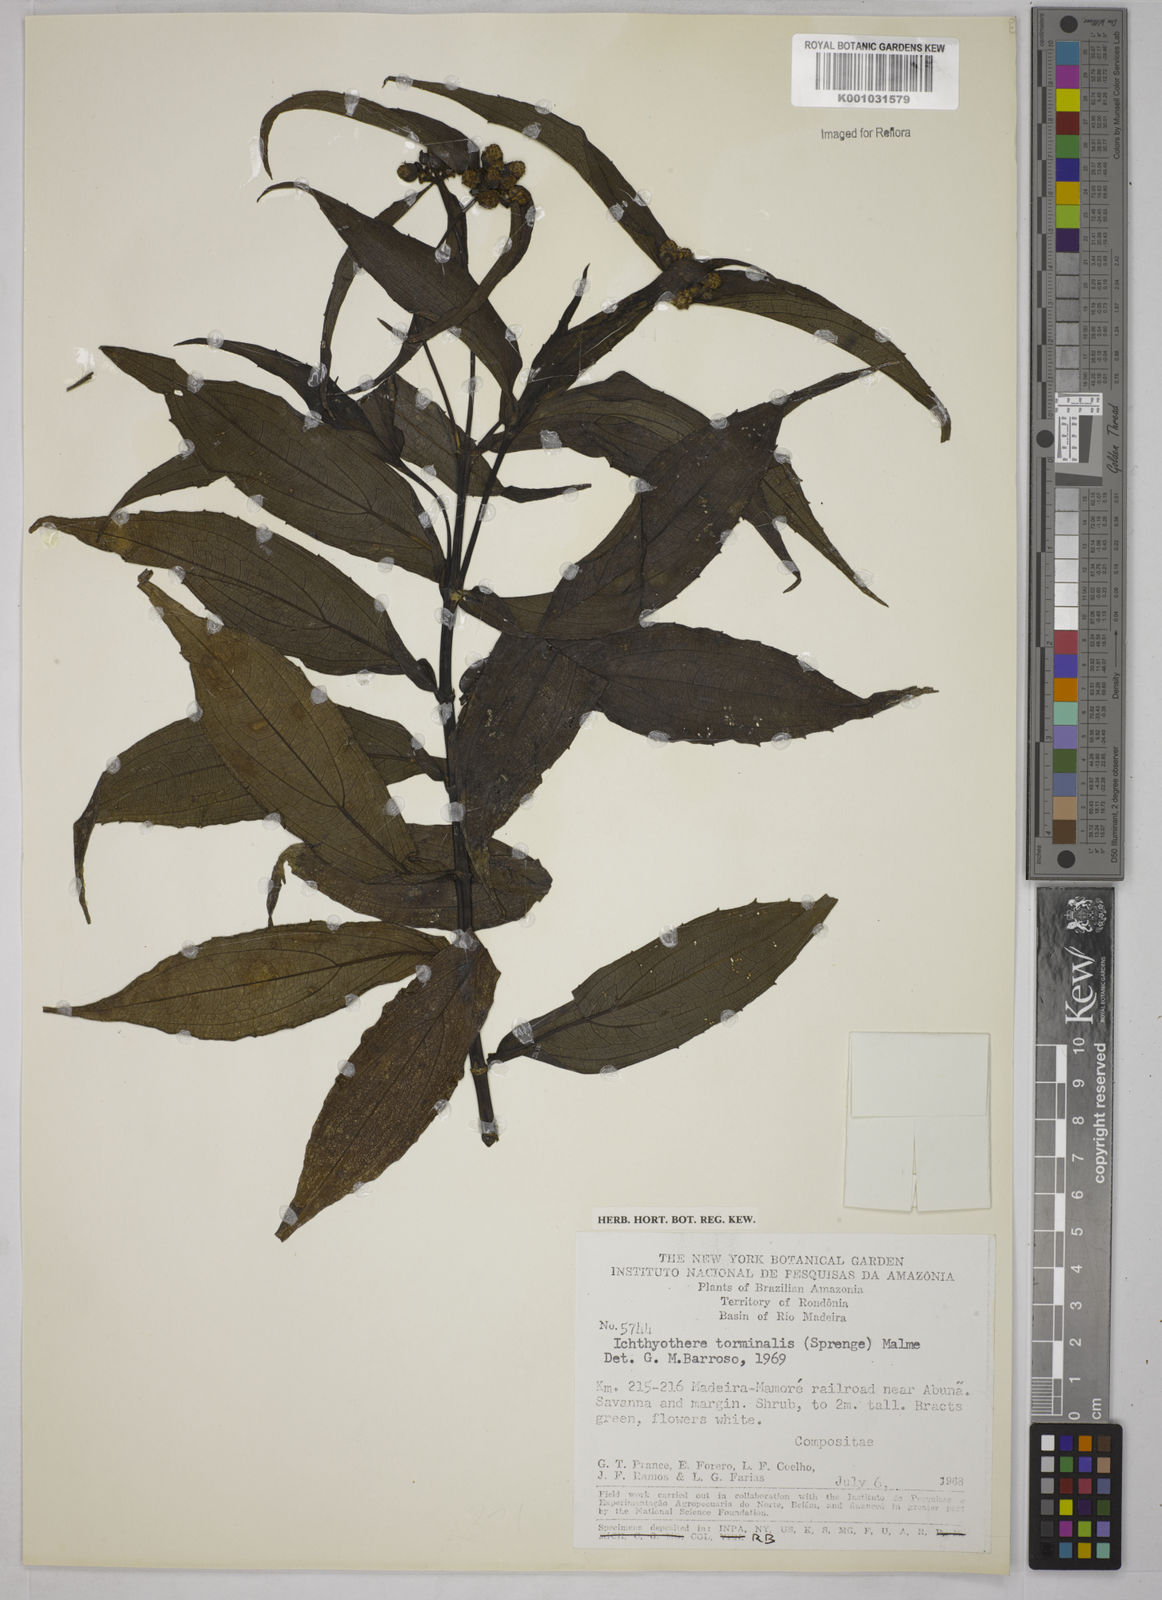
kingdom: Plantae
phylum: Tracheophyta
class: Magnoliopsida
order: Asterales
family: Asteraceae
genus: Ichthyothere
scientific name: Ichthyothere cunabi
